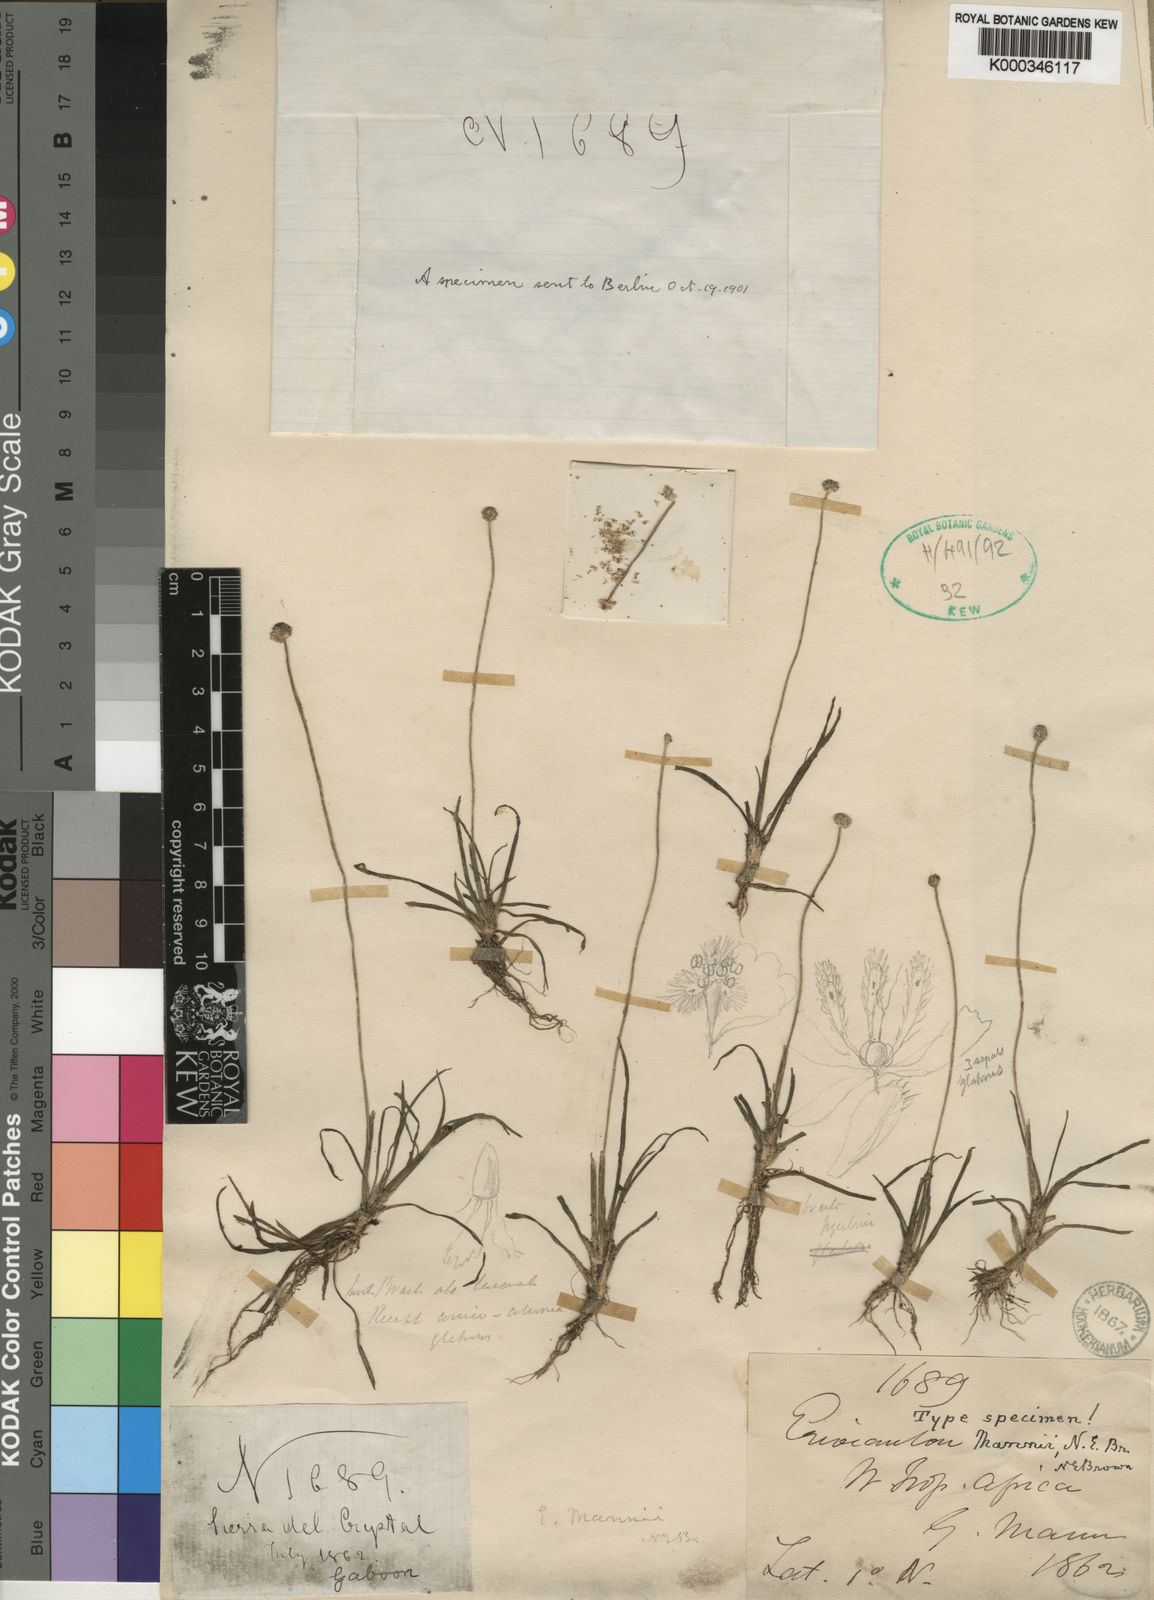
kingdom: Plantae
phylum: Tracheophyta
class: Liliopsida
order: Poales
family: Eriocaulaceae
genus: Eriocaulon
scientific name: Eriocaulon mannii
